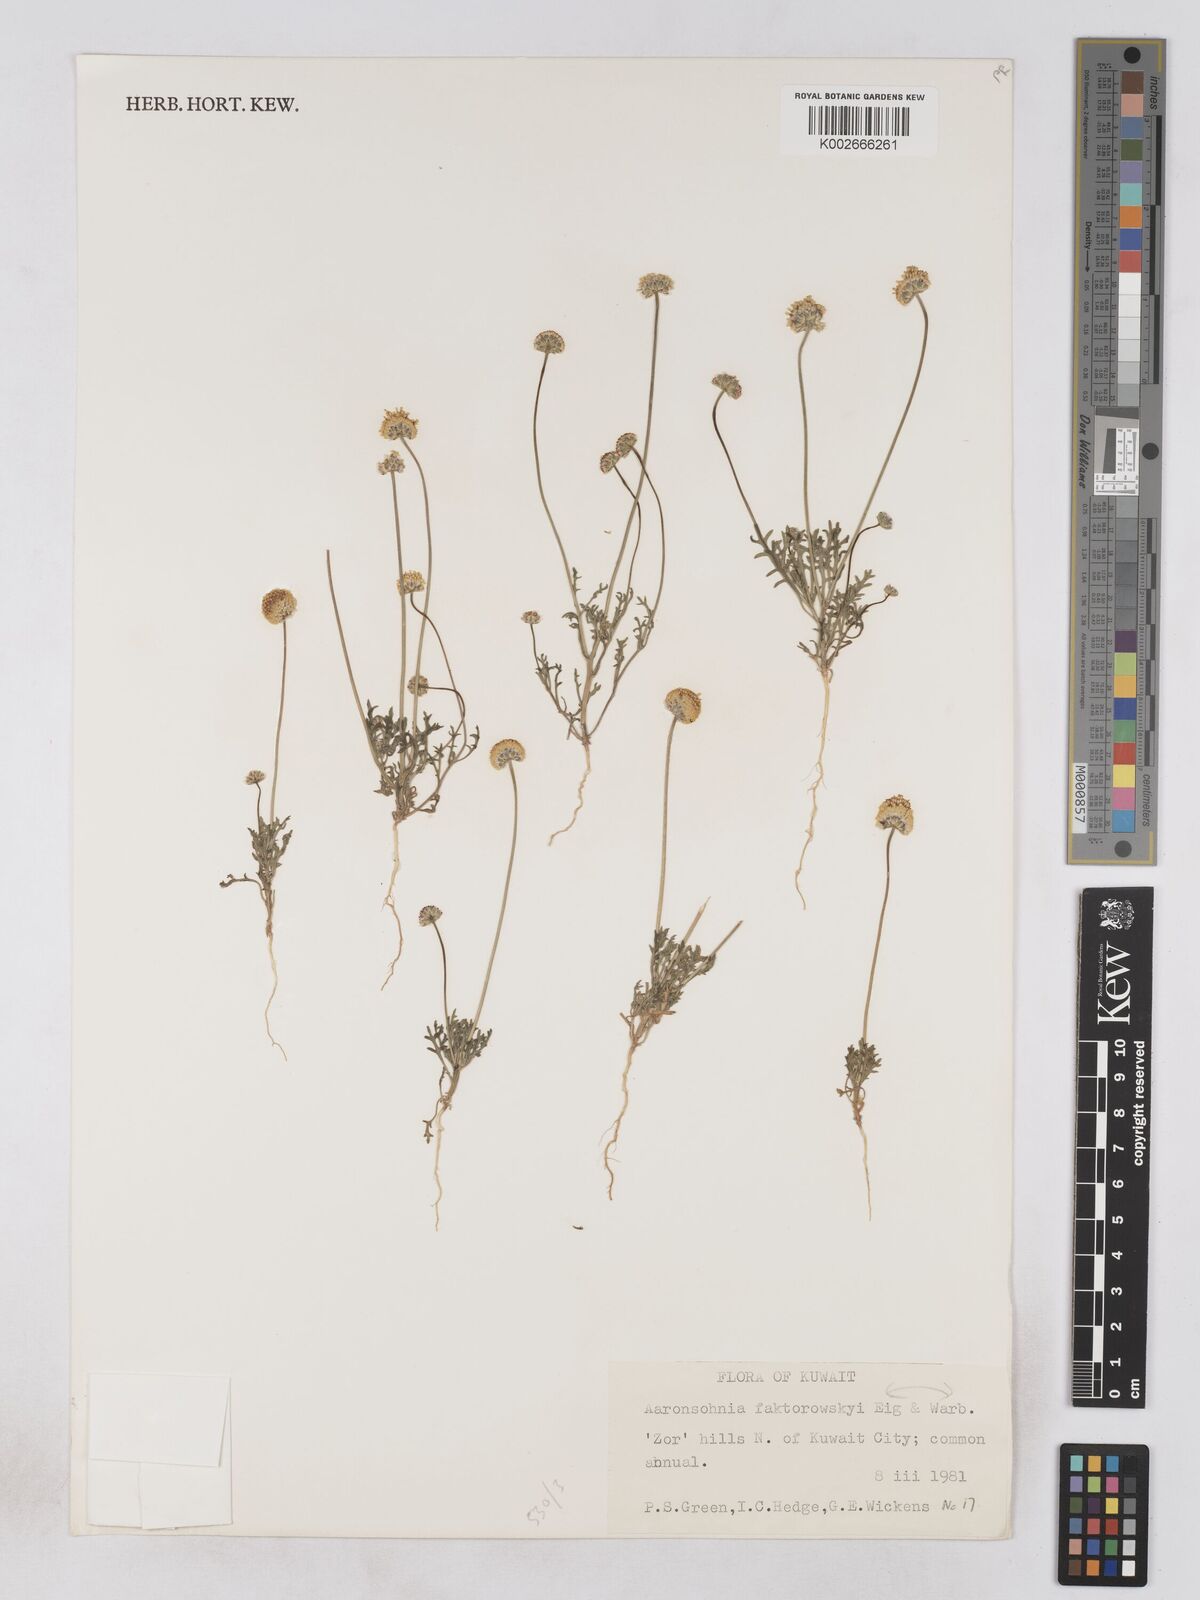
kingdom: Plantae
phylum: Tracheophyta
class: Magnoliopsida
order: Asterales
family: Asteraceae
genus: Otoglyphis
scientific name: Otoglyphis factorovskyi
